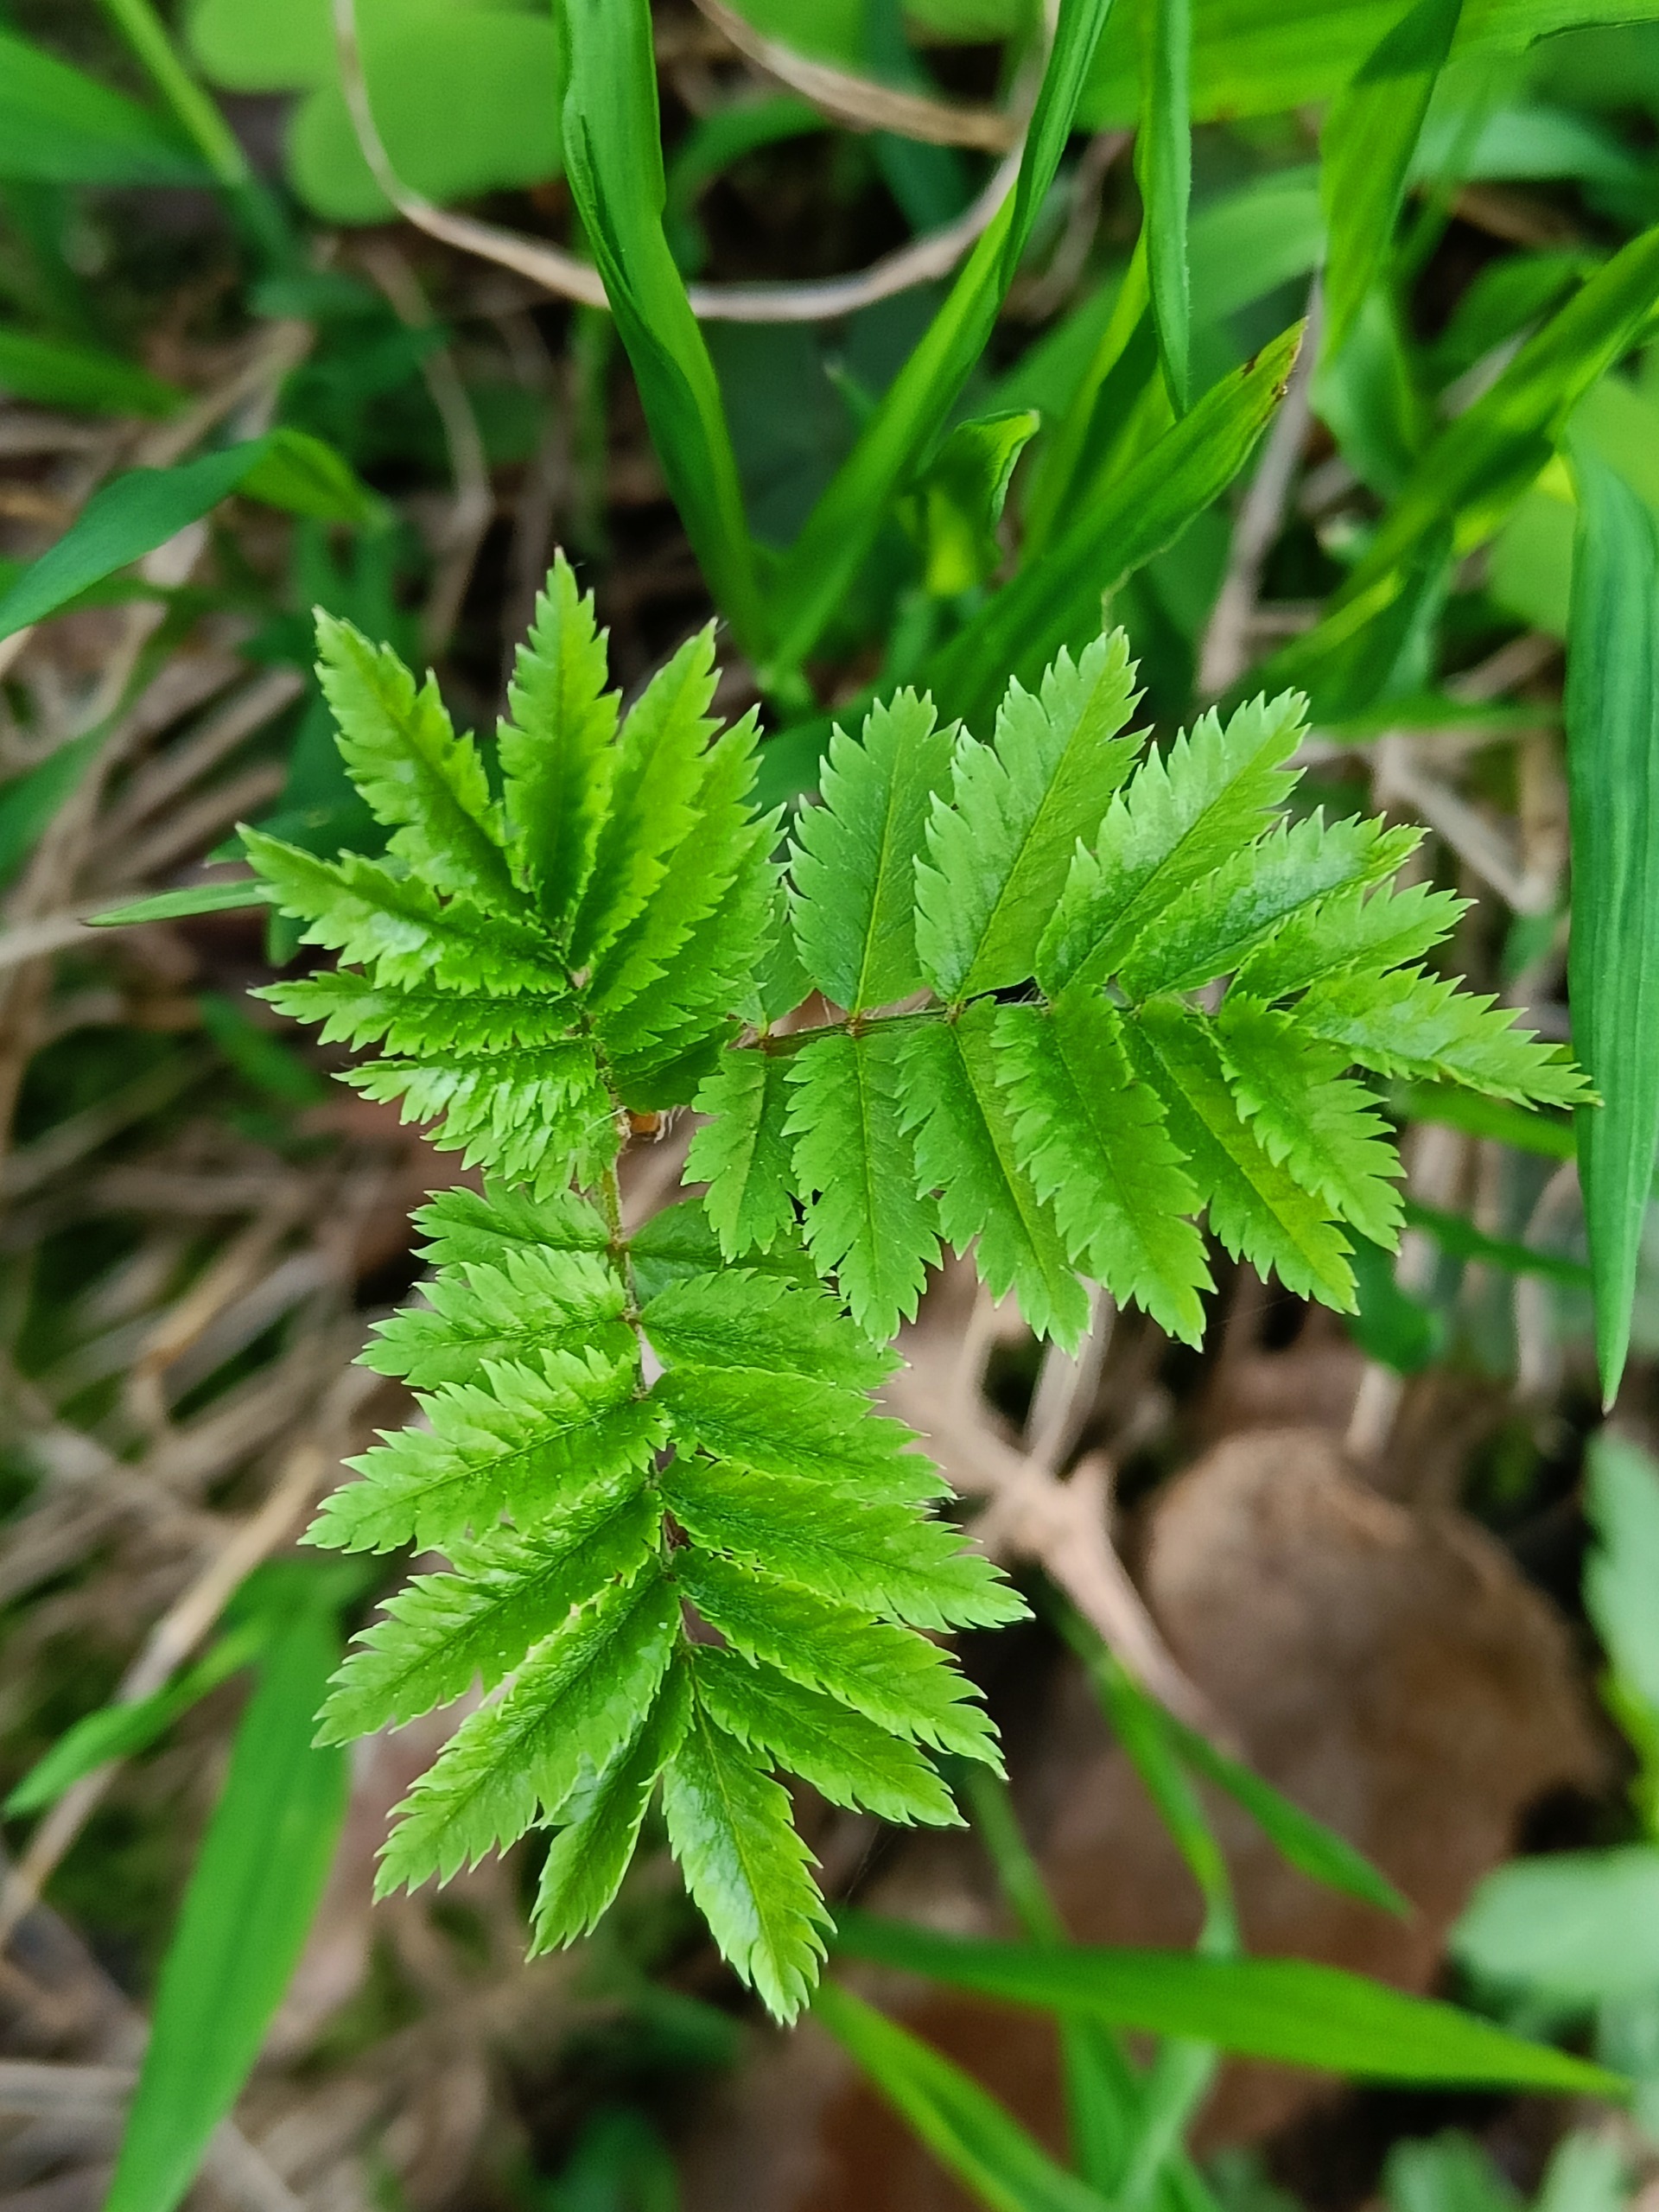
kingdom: Plantae
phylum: Tracheophyta
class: Magnoliopsida
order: Rosales
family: Rosaceae
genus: Sorbus
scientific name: Sorbus aucuparia
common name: Almindelig røn
